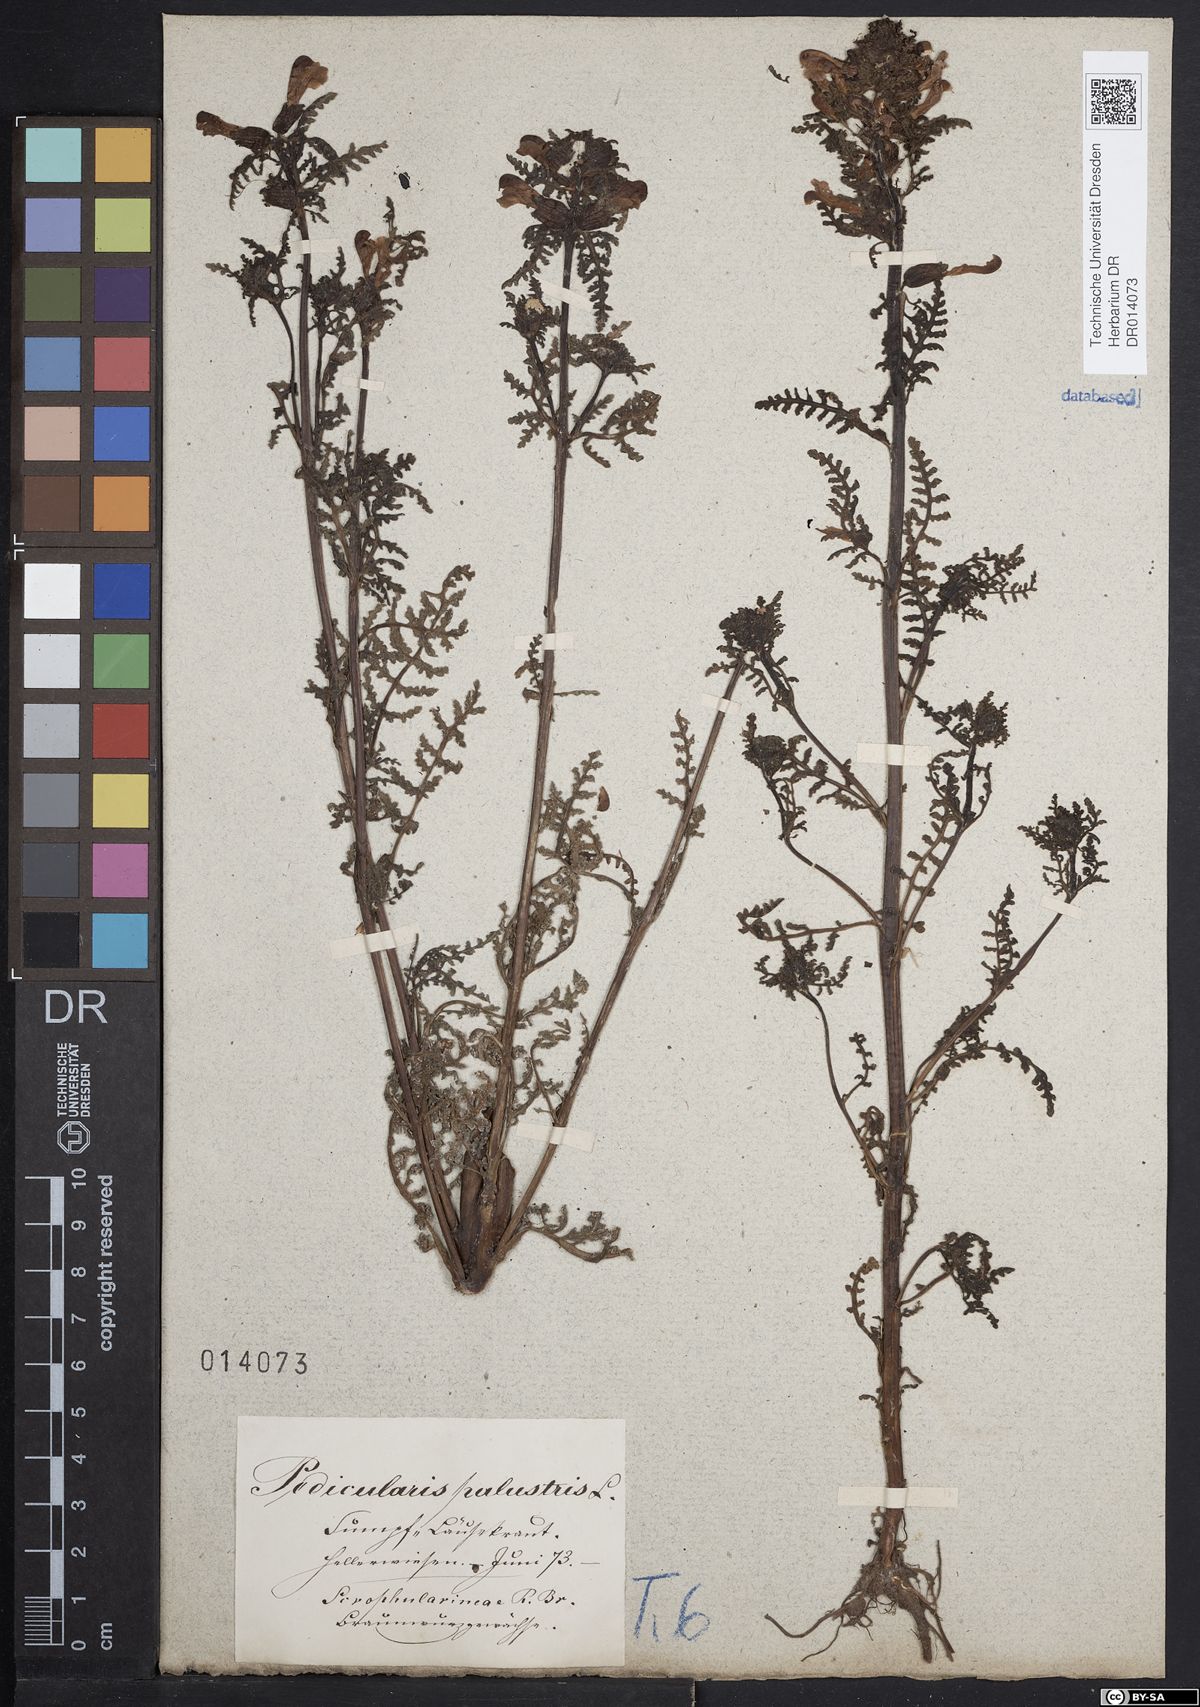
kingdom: Plantae
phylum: Tracheophyta
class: Magnoliopsida
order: Lamiales
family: Orobanchaceae
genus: Pedicularis
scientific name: Pedicularis palustris
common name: Marsh lousewort
